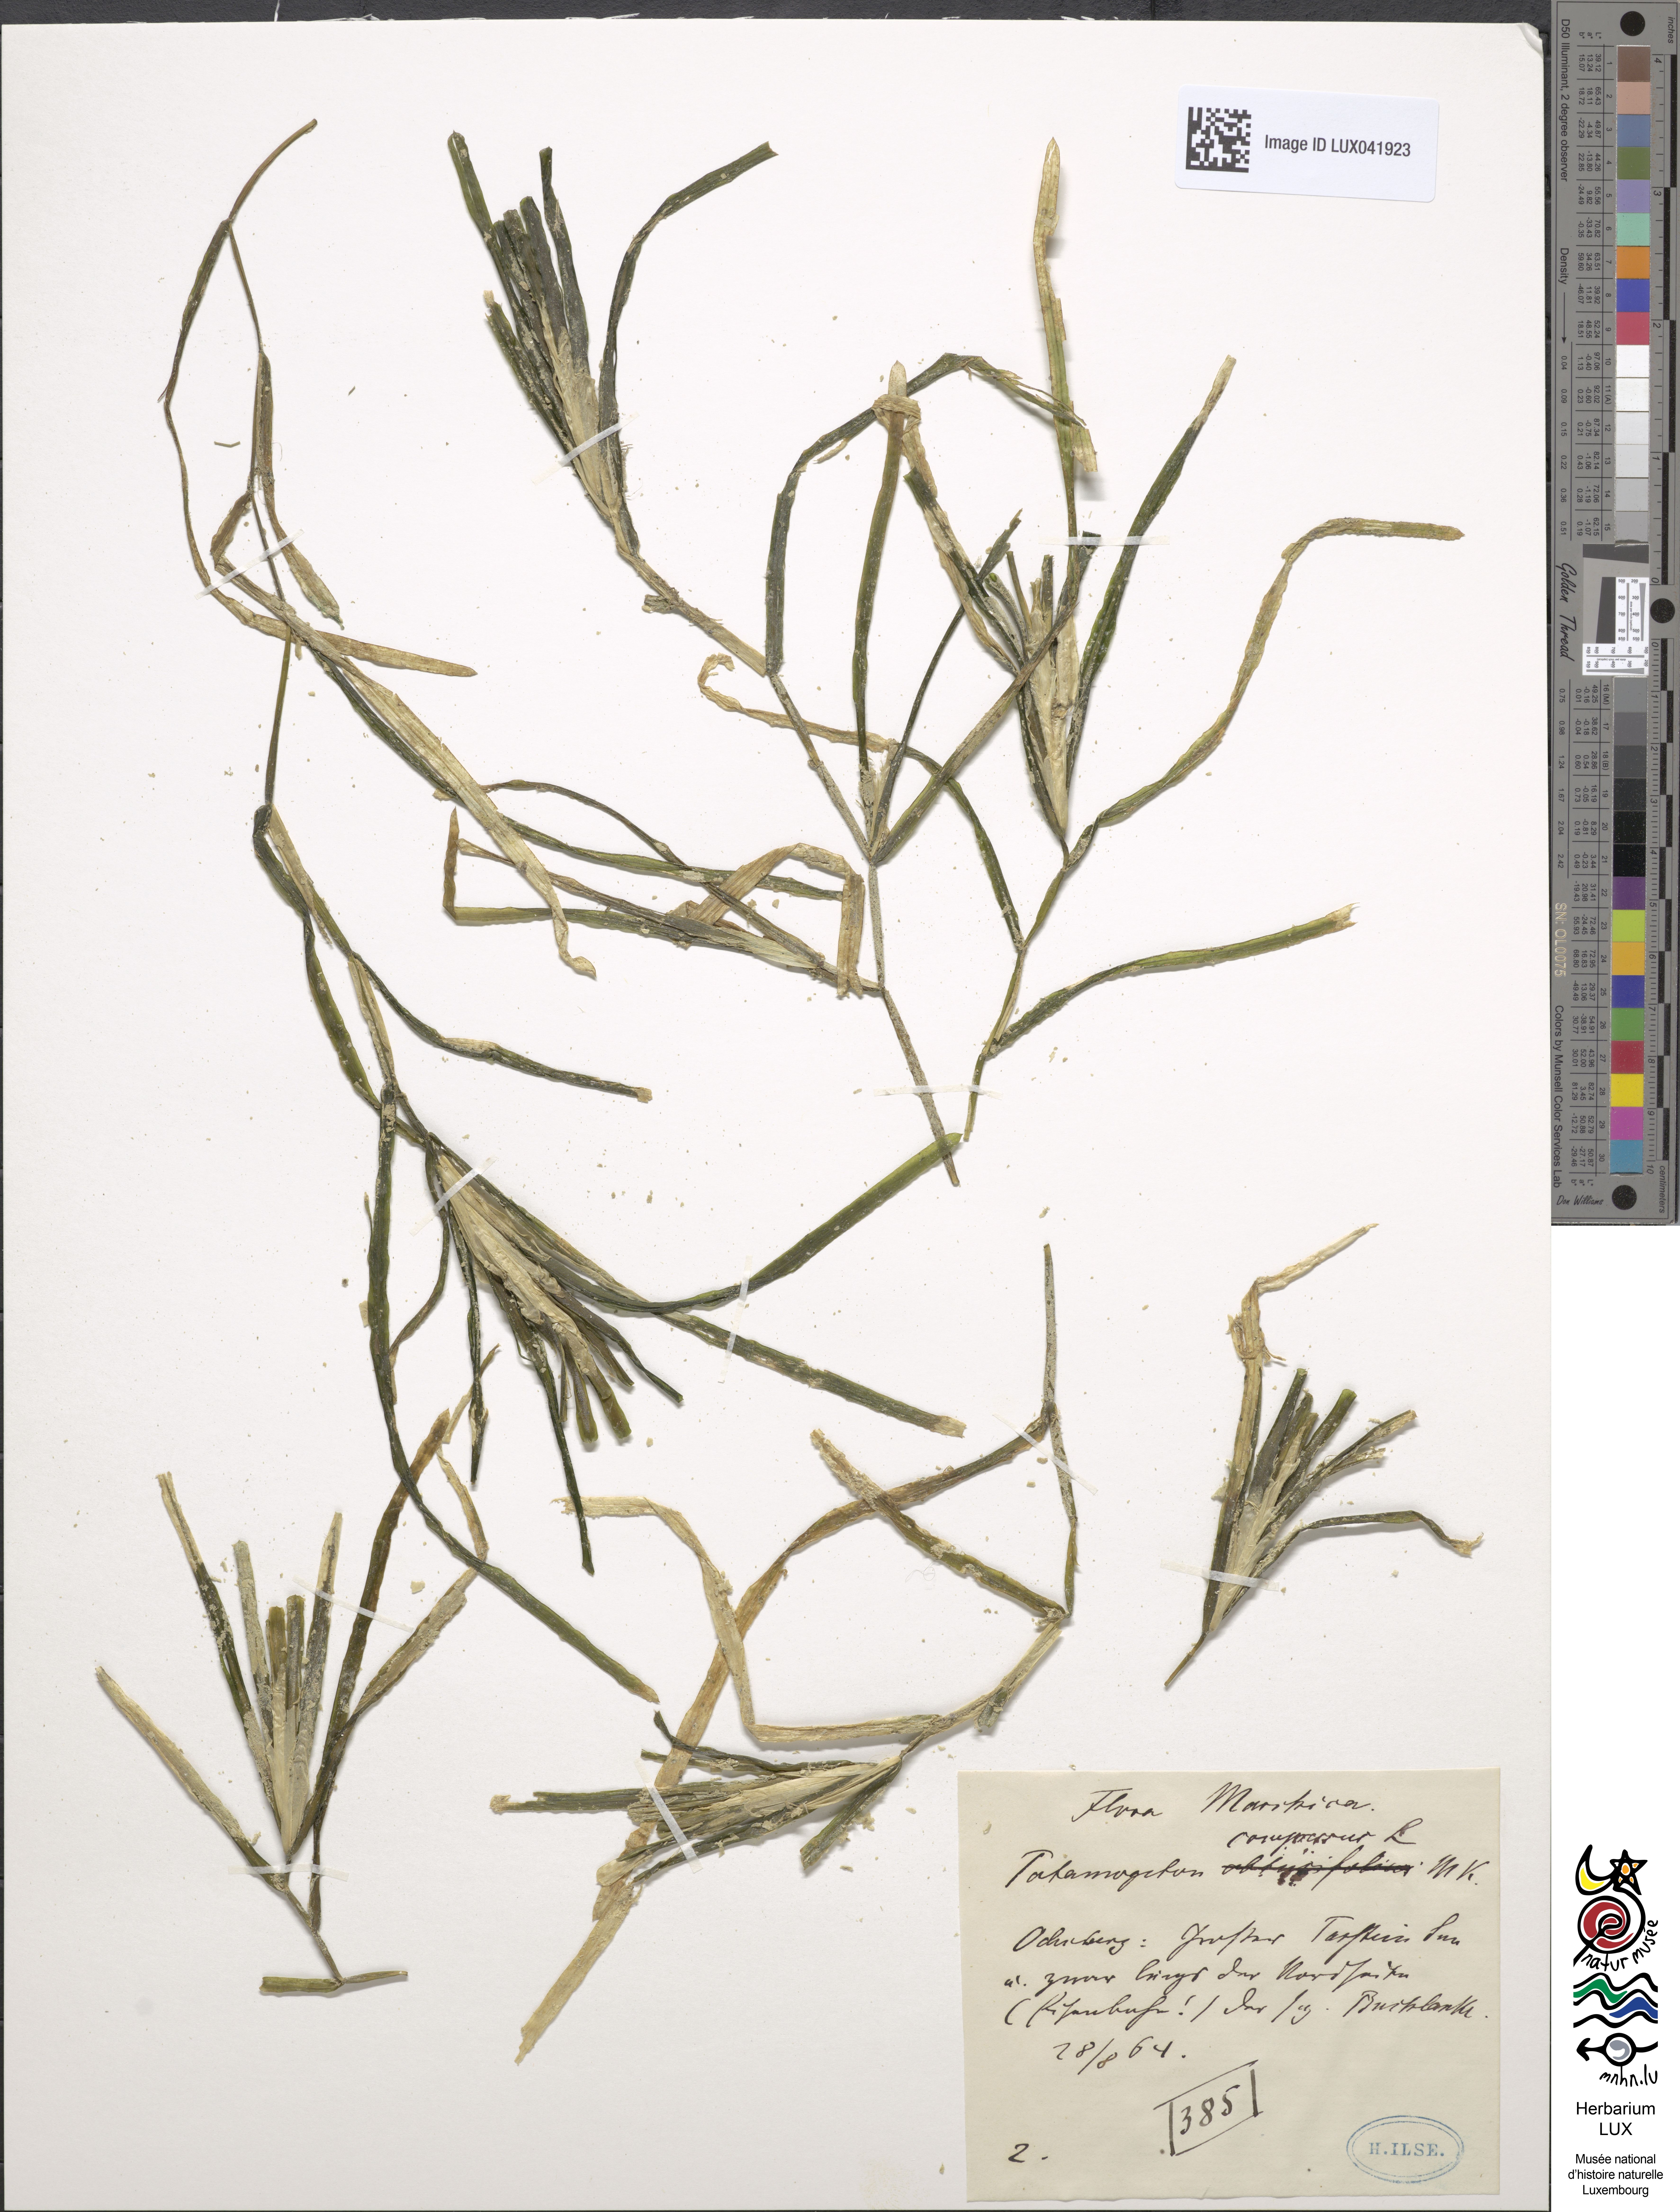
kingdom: Plantae
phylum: Tracheophyta
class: Liliopsida
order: Alismatales
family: Potamogetonaceae
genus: Potamogeton
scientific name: Potamogeton compressus
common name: Grass-wrack pondweed
